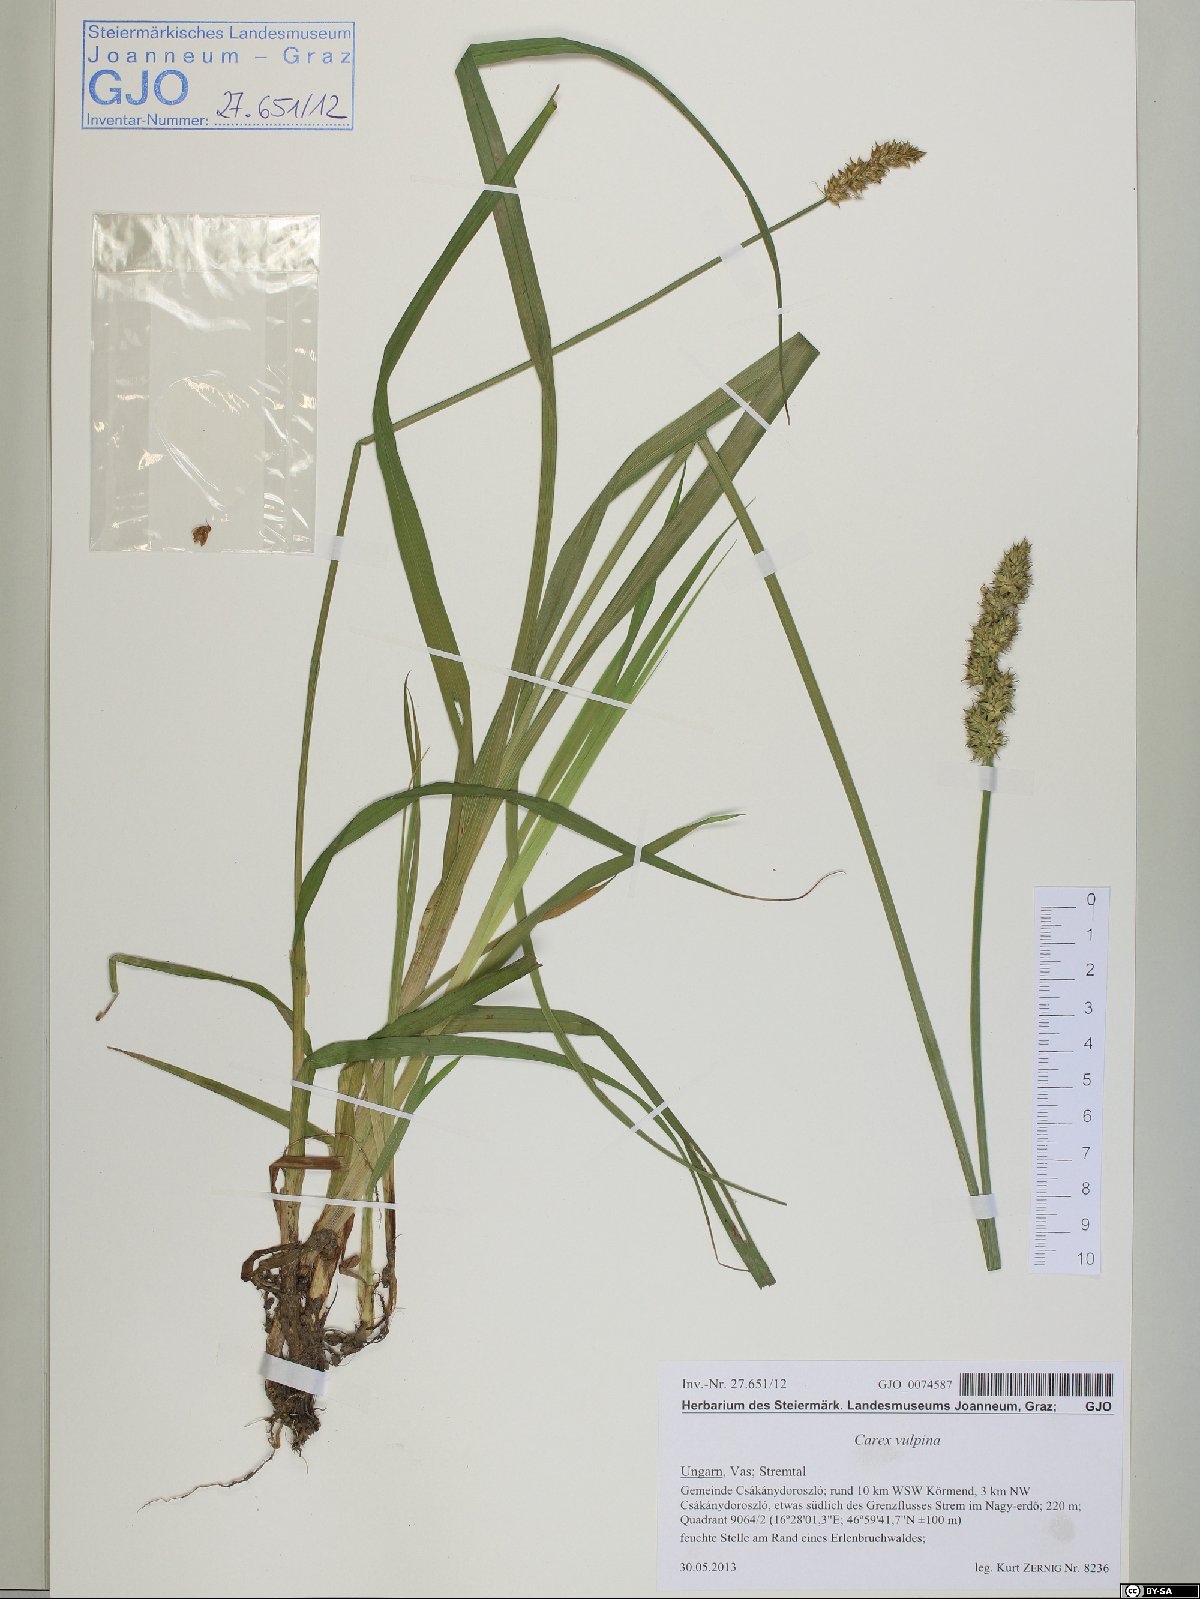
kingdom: Plantae
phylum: Tracheophyta
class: Liliopsida
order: Poales
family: Cyperaceae
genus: Carex
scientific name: Carex vulpina
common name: True fox-sedge
